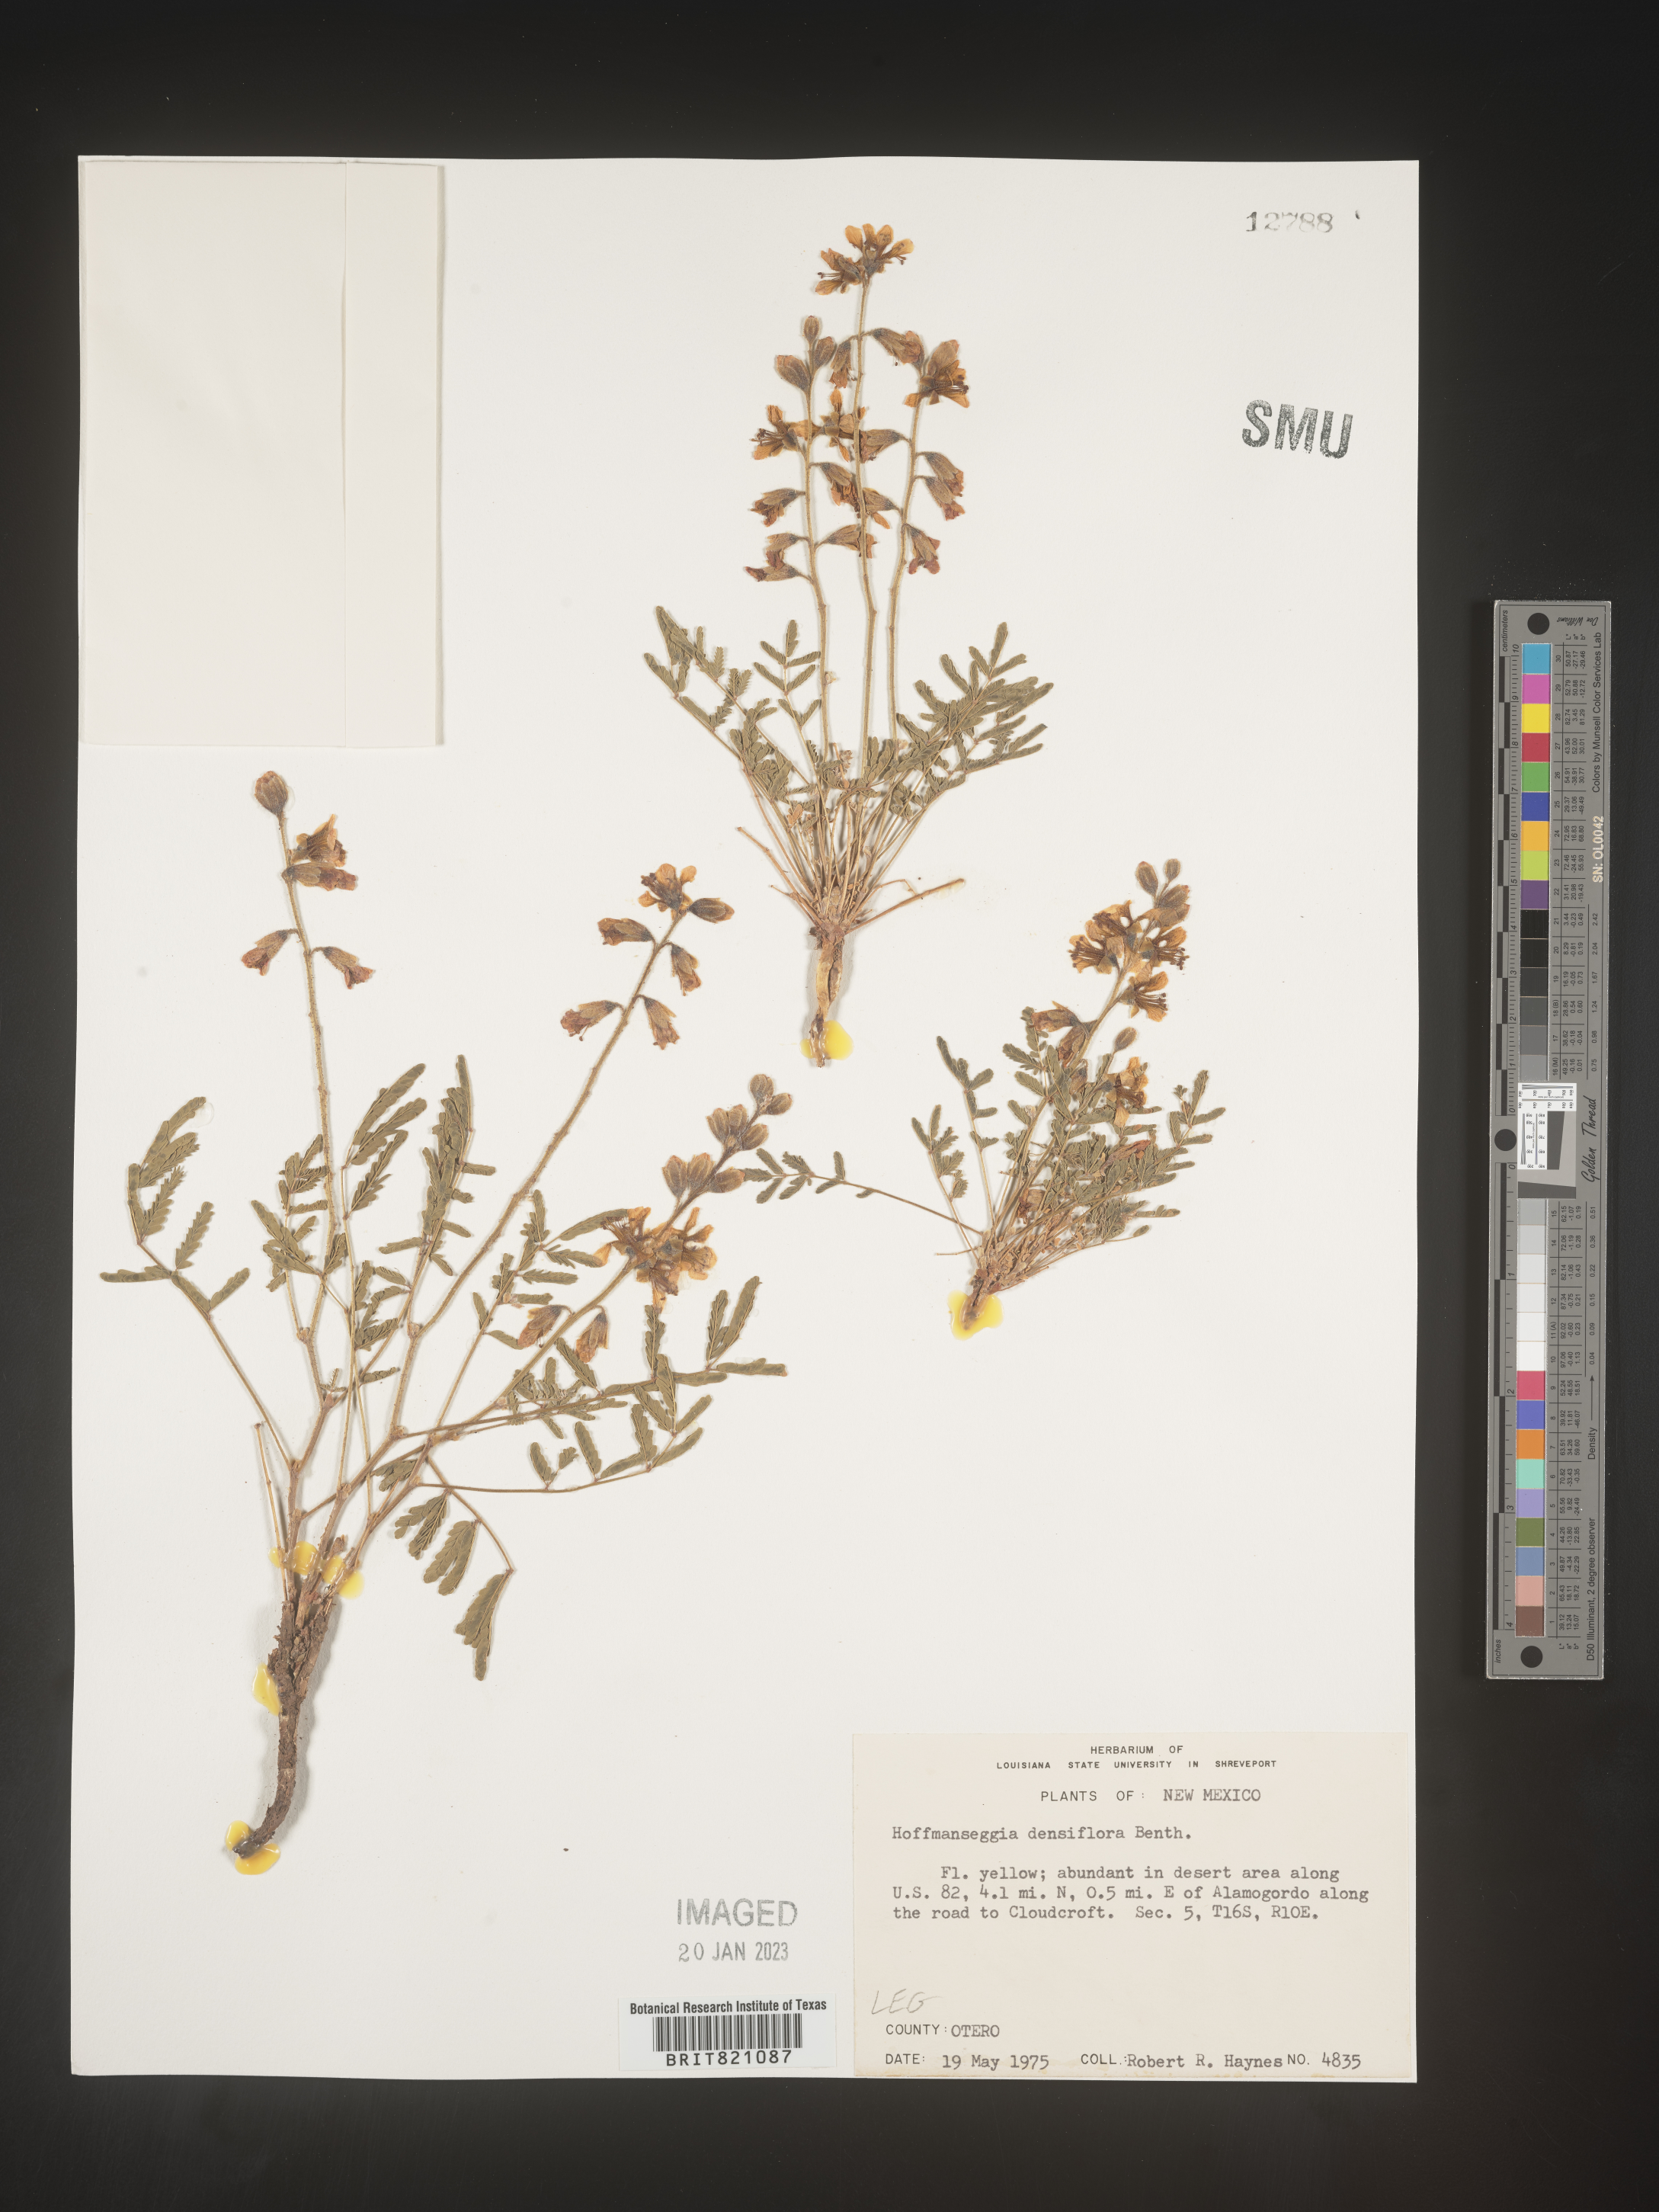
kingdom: Plantae
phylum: Tracheophyta
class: Magnoliopsida
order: Fabales
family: Fabaceae
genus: Hoffmannseggia
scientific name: Hoffmannseggia
